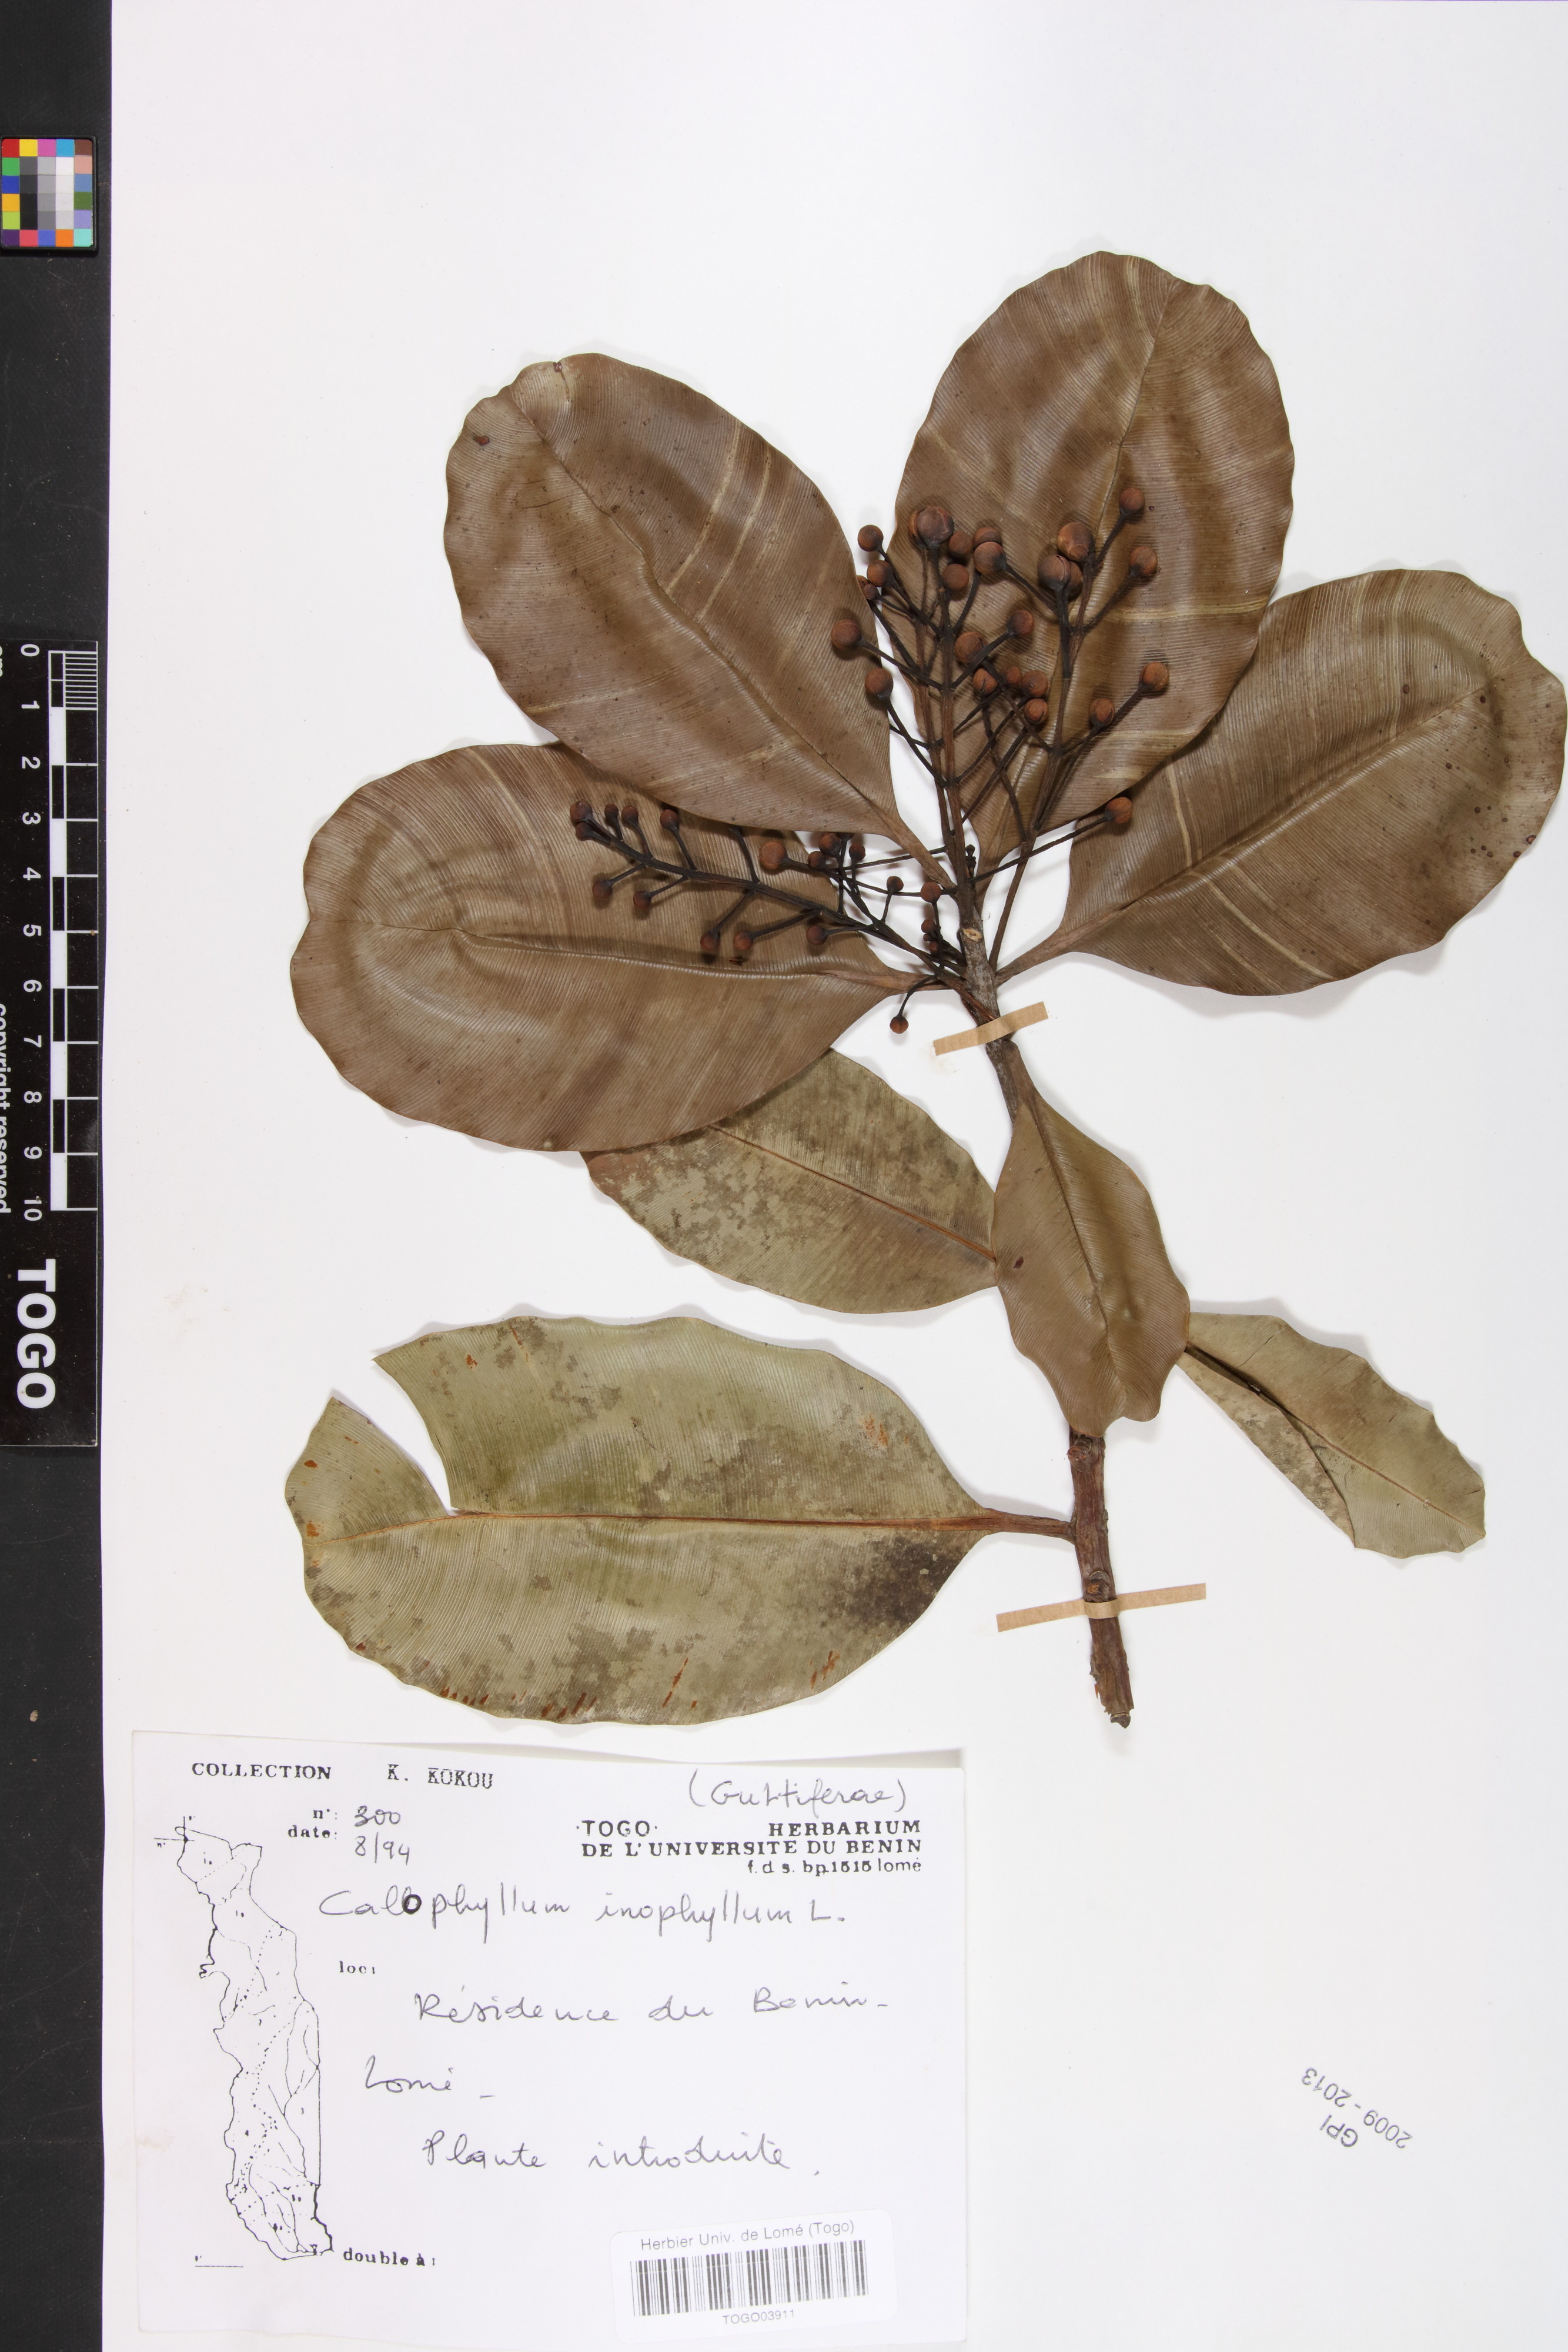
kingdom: Plantae
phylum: Tracheophyta
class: Magnoliopsida
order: Malpighiales
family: Calophyllaceae
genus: Calophyllum
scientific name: Calophyllum inophyllum
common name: Alexandrian laurel
